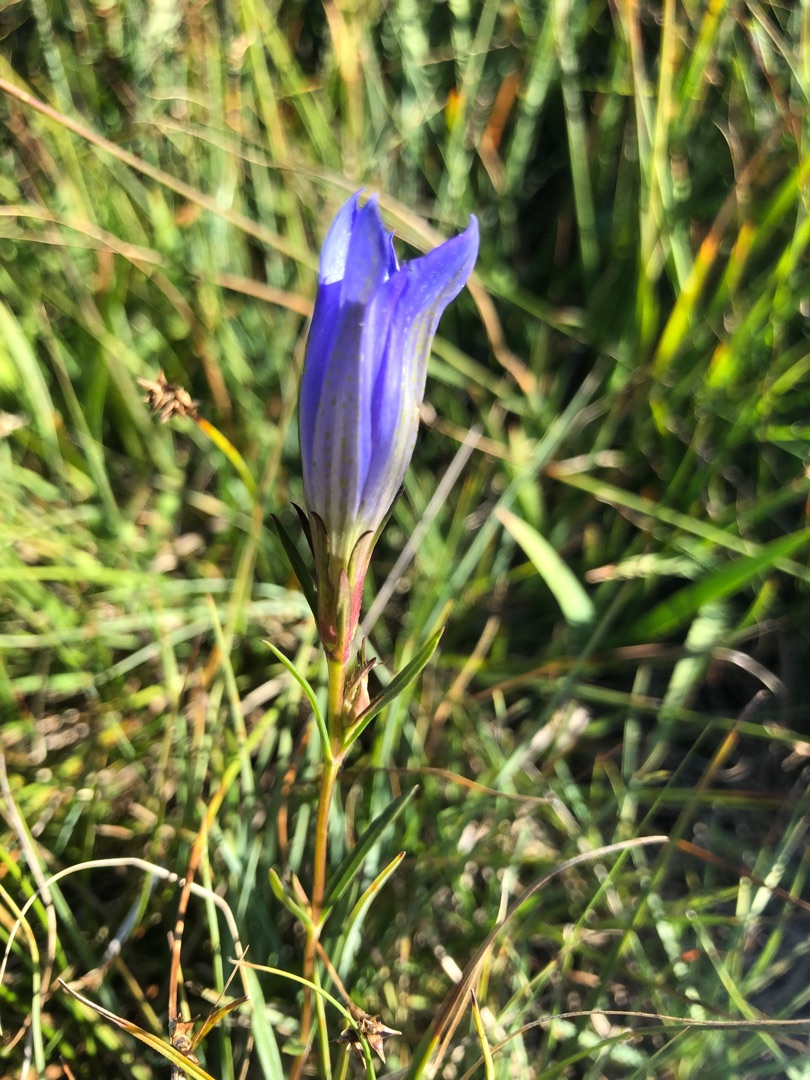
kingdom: Plantae
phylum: Tracheophyta
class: Magnoliopsida
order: Gentianales
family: Gentianaceae
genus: Gentiana
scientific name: Gentiana pneumonanthe
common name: Klokke-ensian
